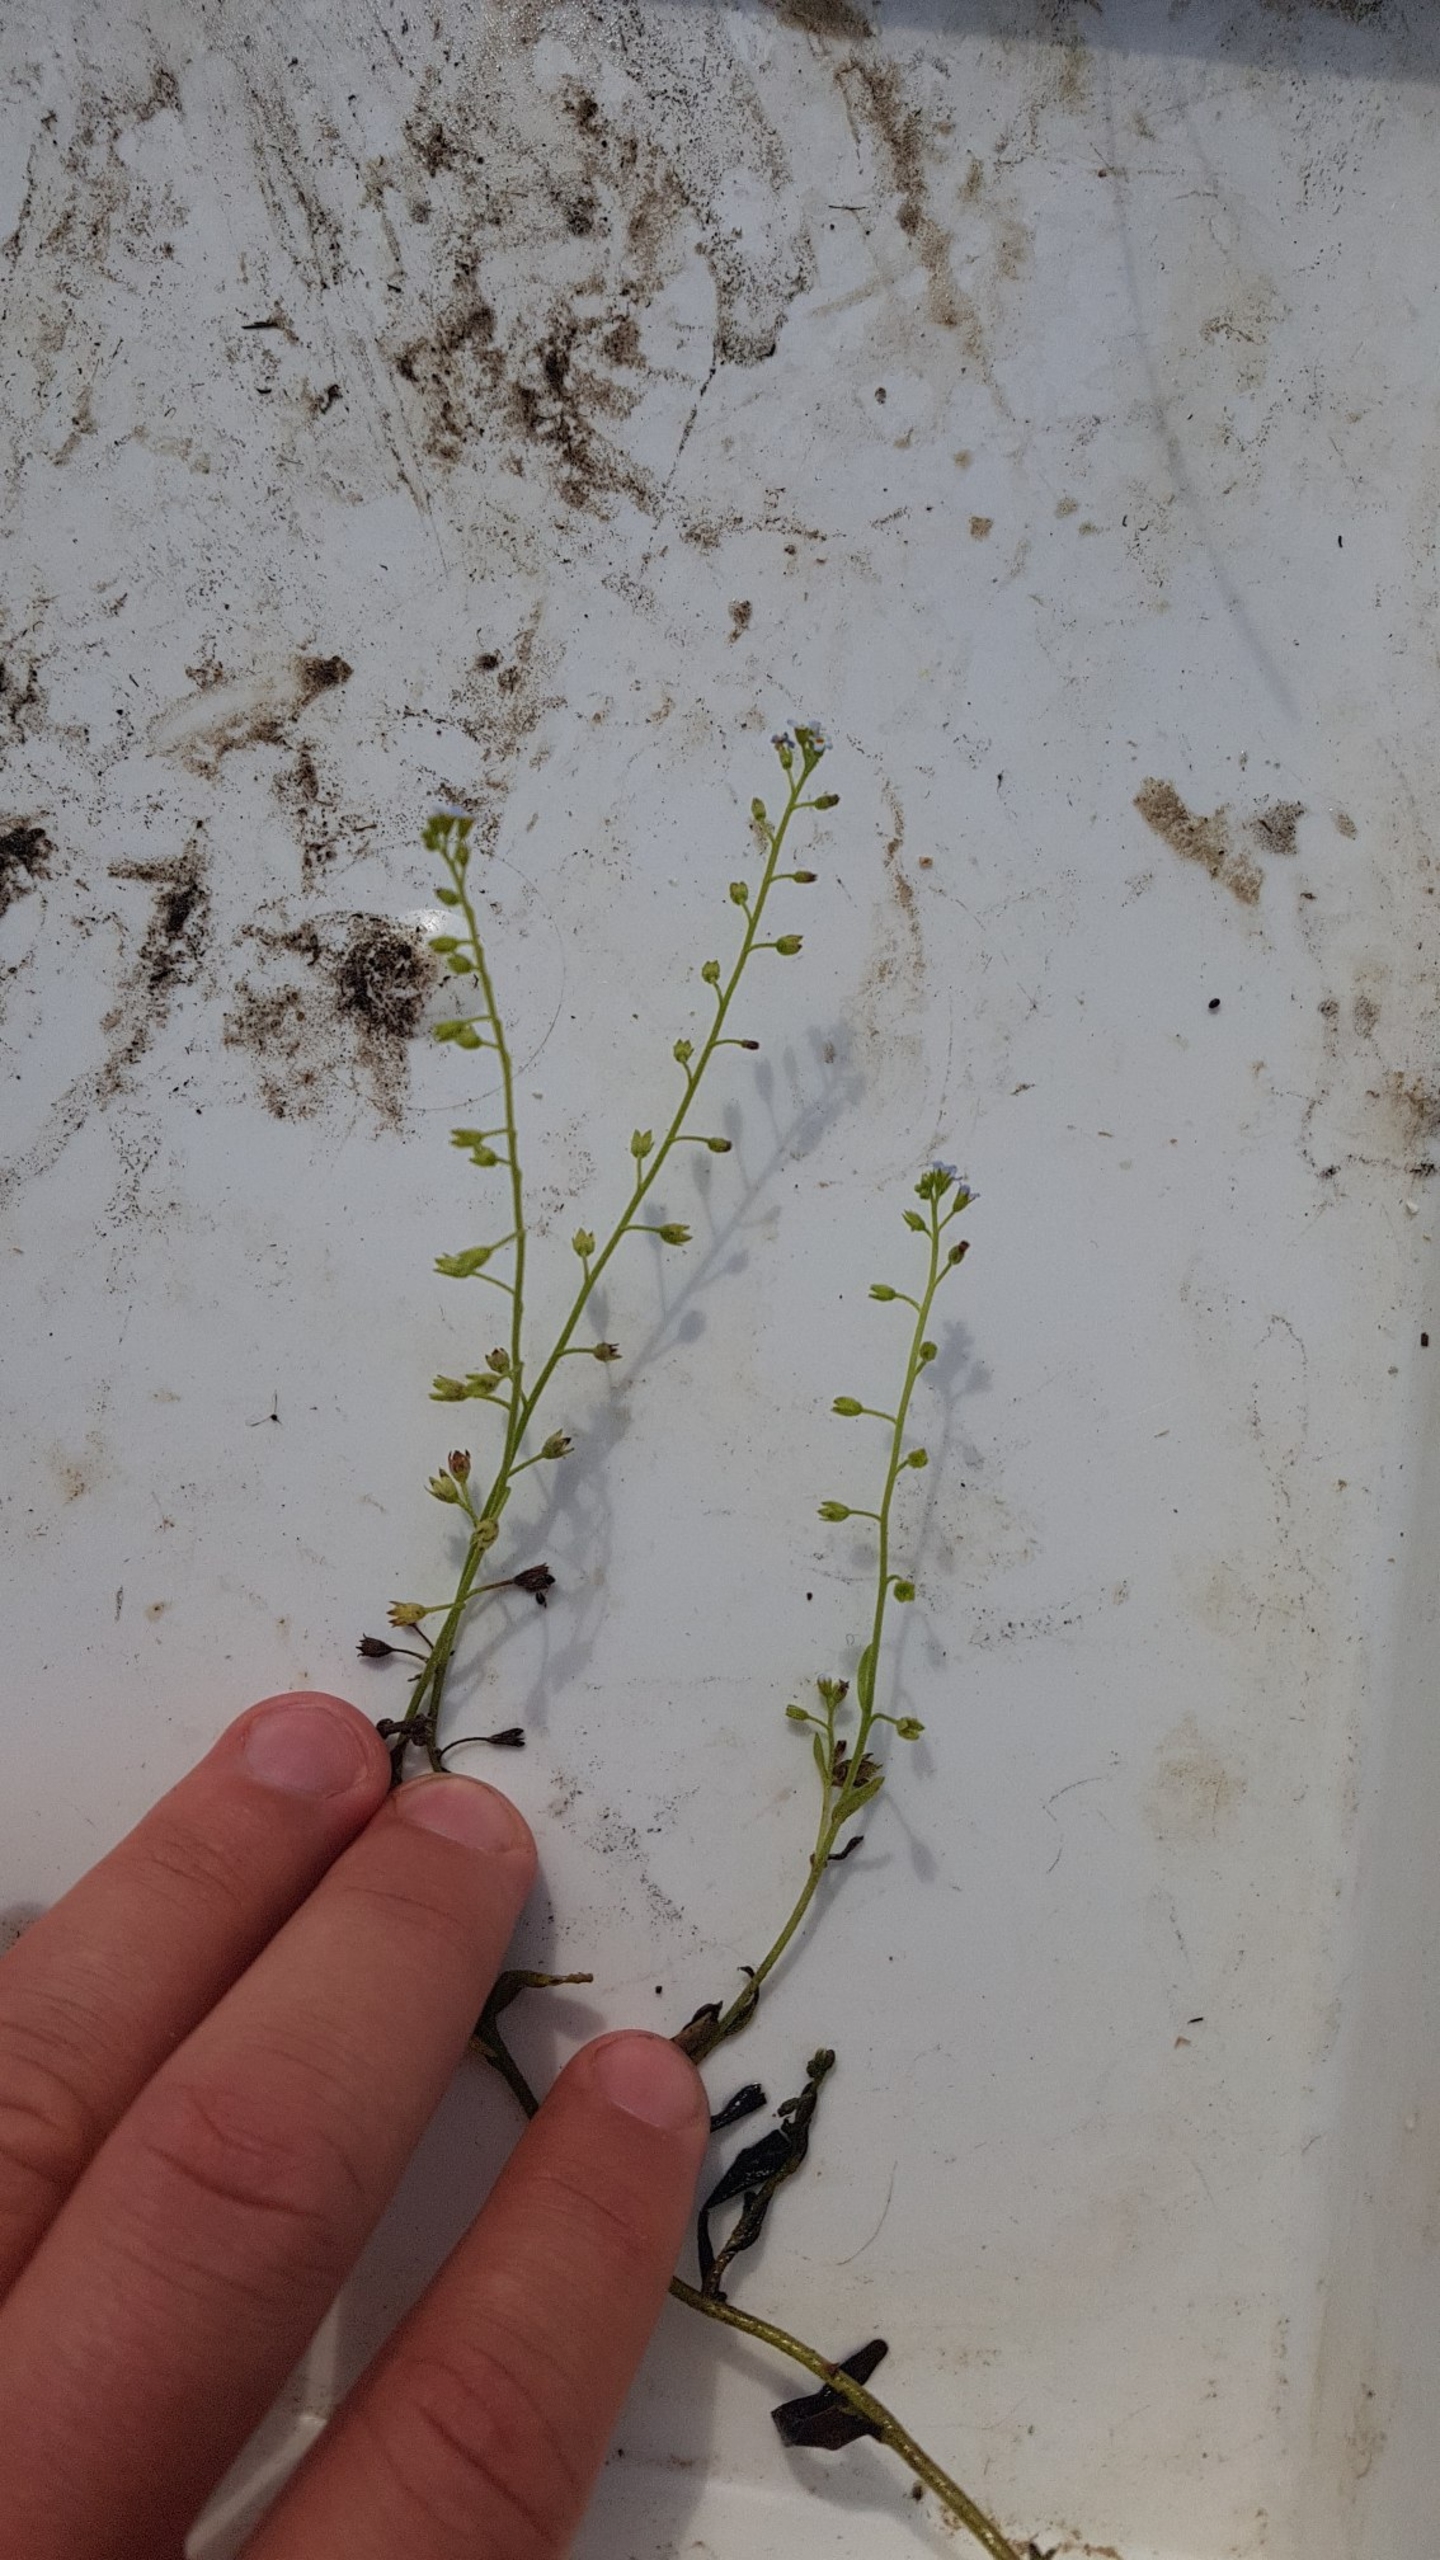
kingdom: Plantae
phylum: Tracheophyta
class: Magnoliopsida
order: Boraginales
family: Boraginaceae
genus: Myosotis
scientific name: Myosotis laxa
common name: Sump-forglemmigej
